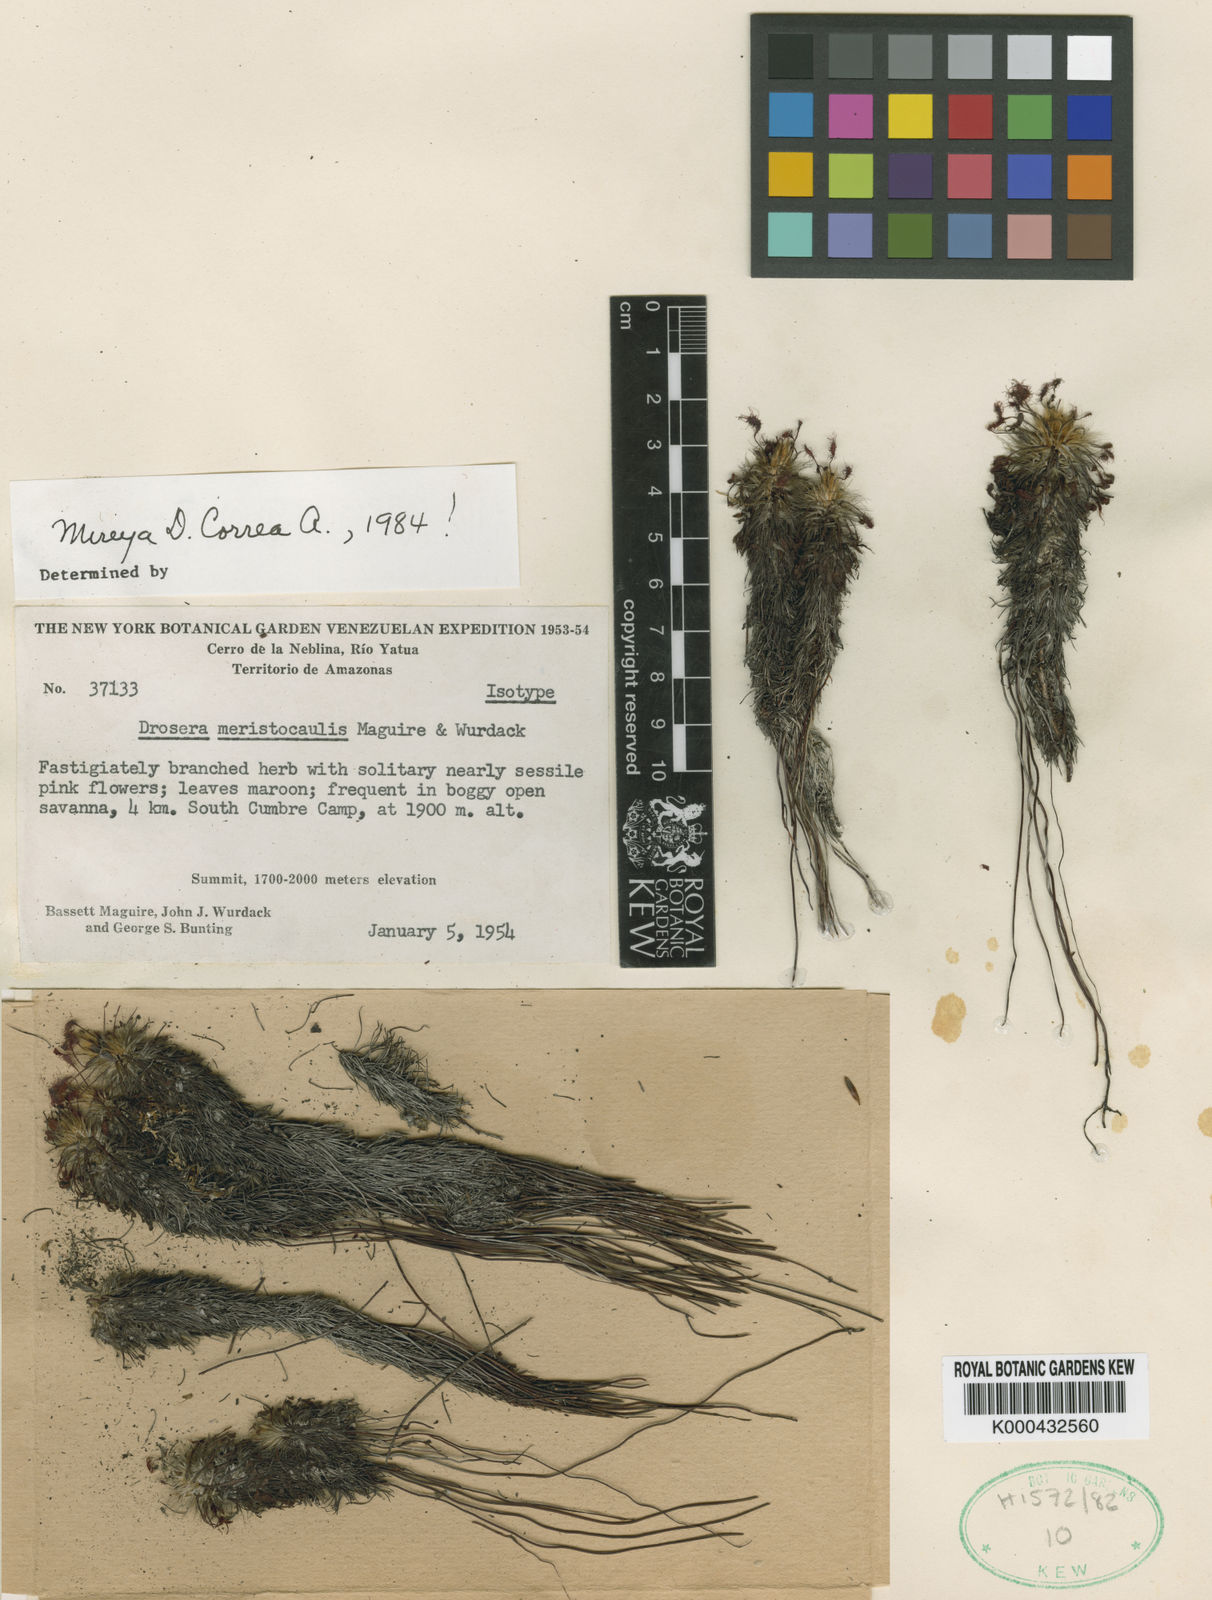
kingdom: Plantae
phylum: Tracheophyta
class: Magnoliopsida
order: Caryophyllales
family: Droseraceae
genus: Drosera
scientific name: Drosera meristocaulis
